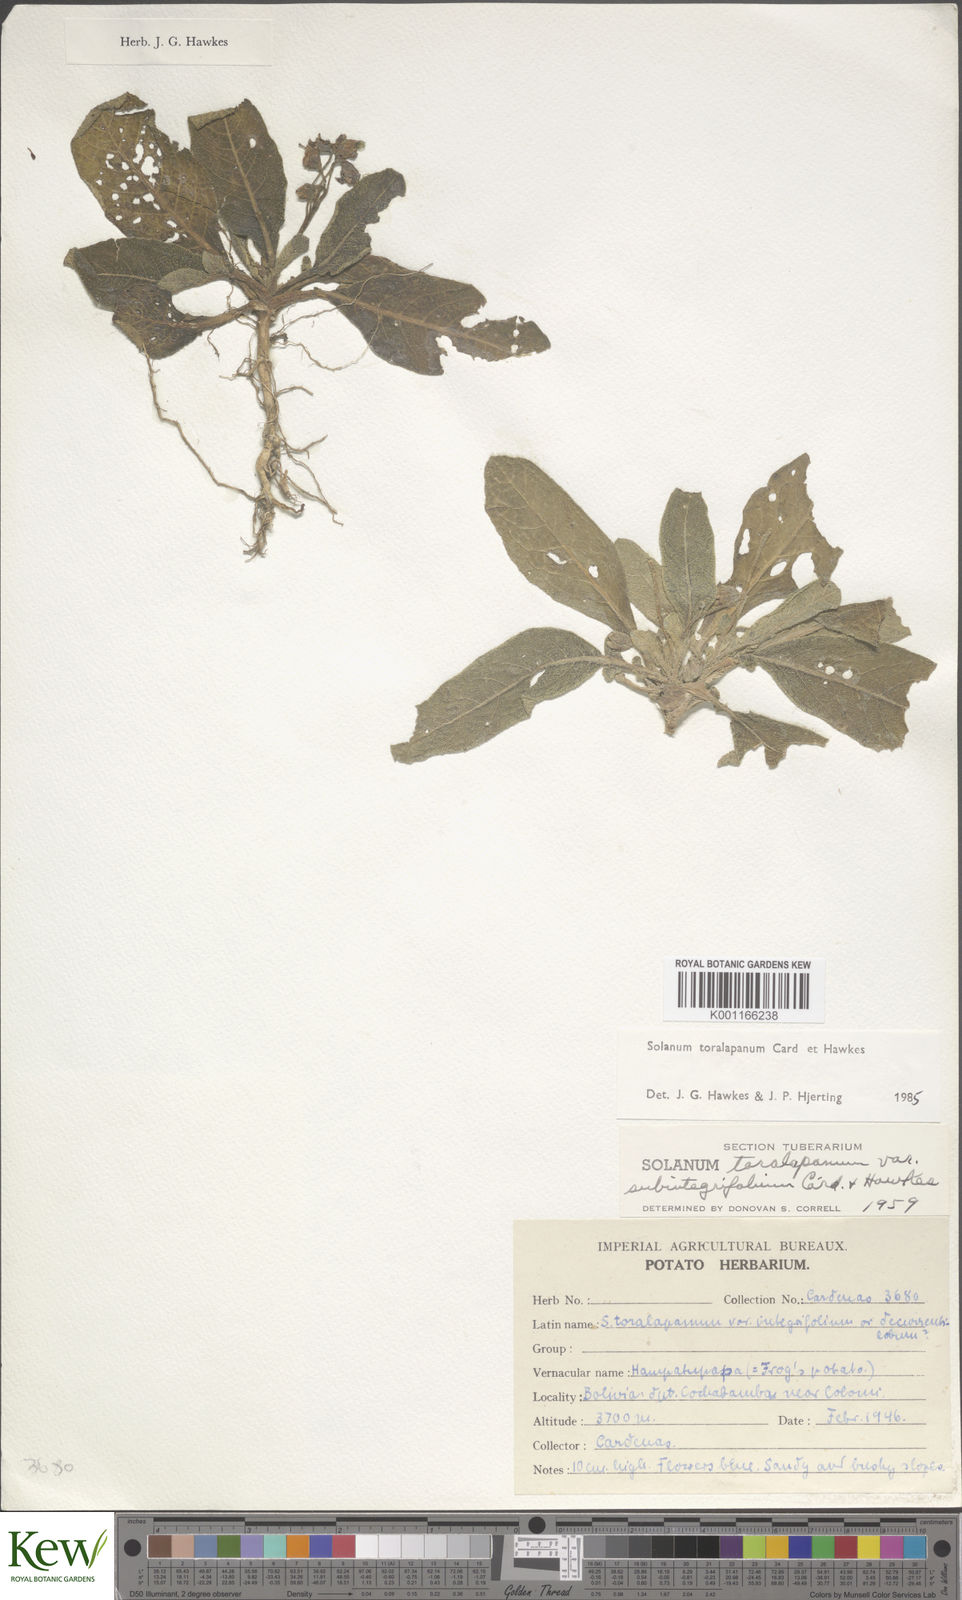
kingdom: Plantae
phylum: Tracheophyta
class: Magnoliopsida
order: Solanales
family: Solanaceae
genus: Solanum
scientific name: Solanum
